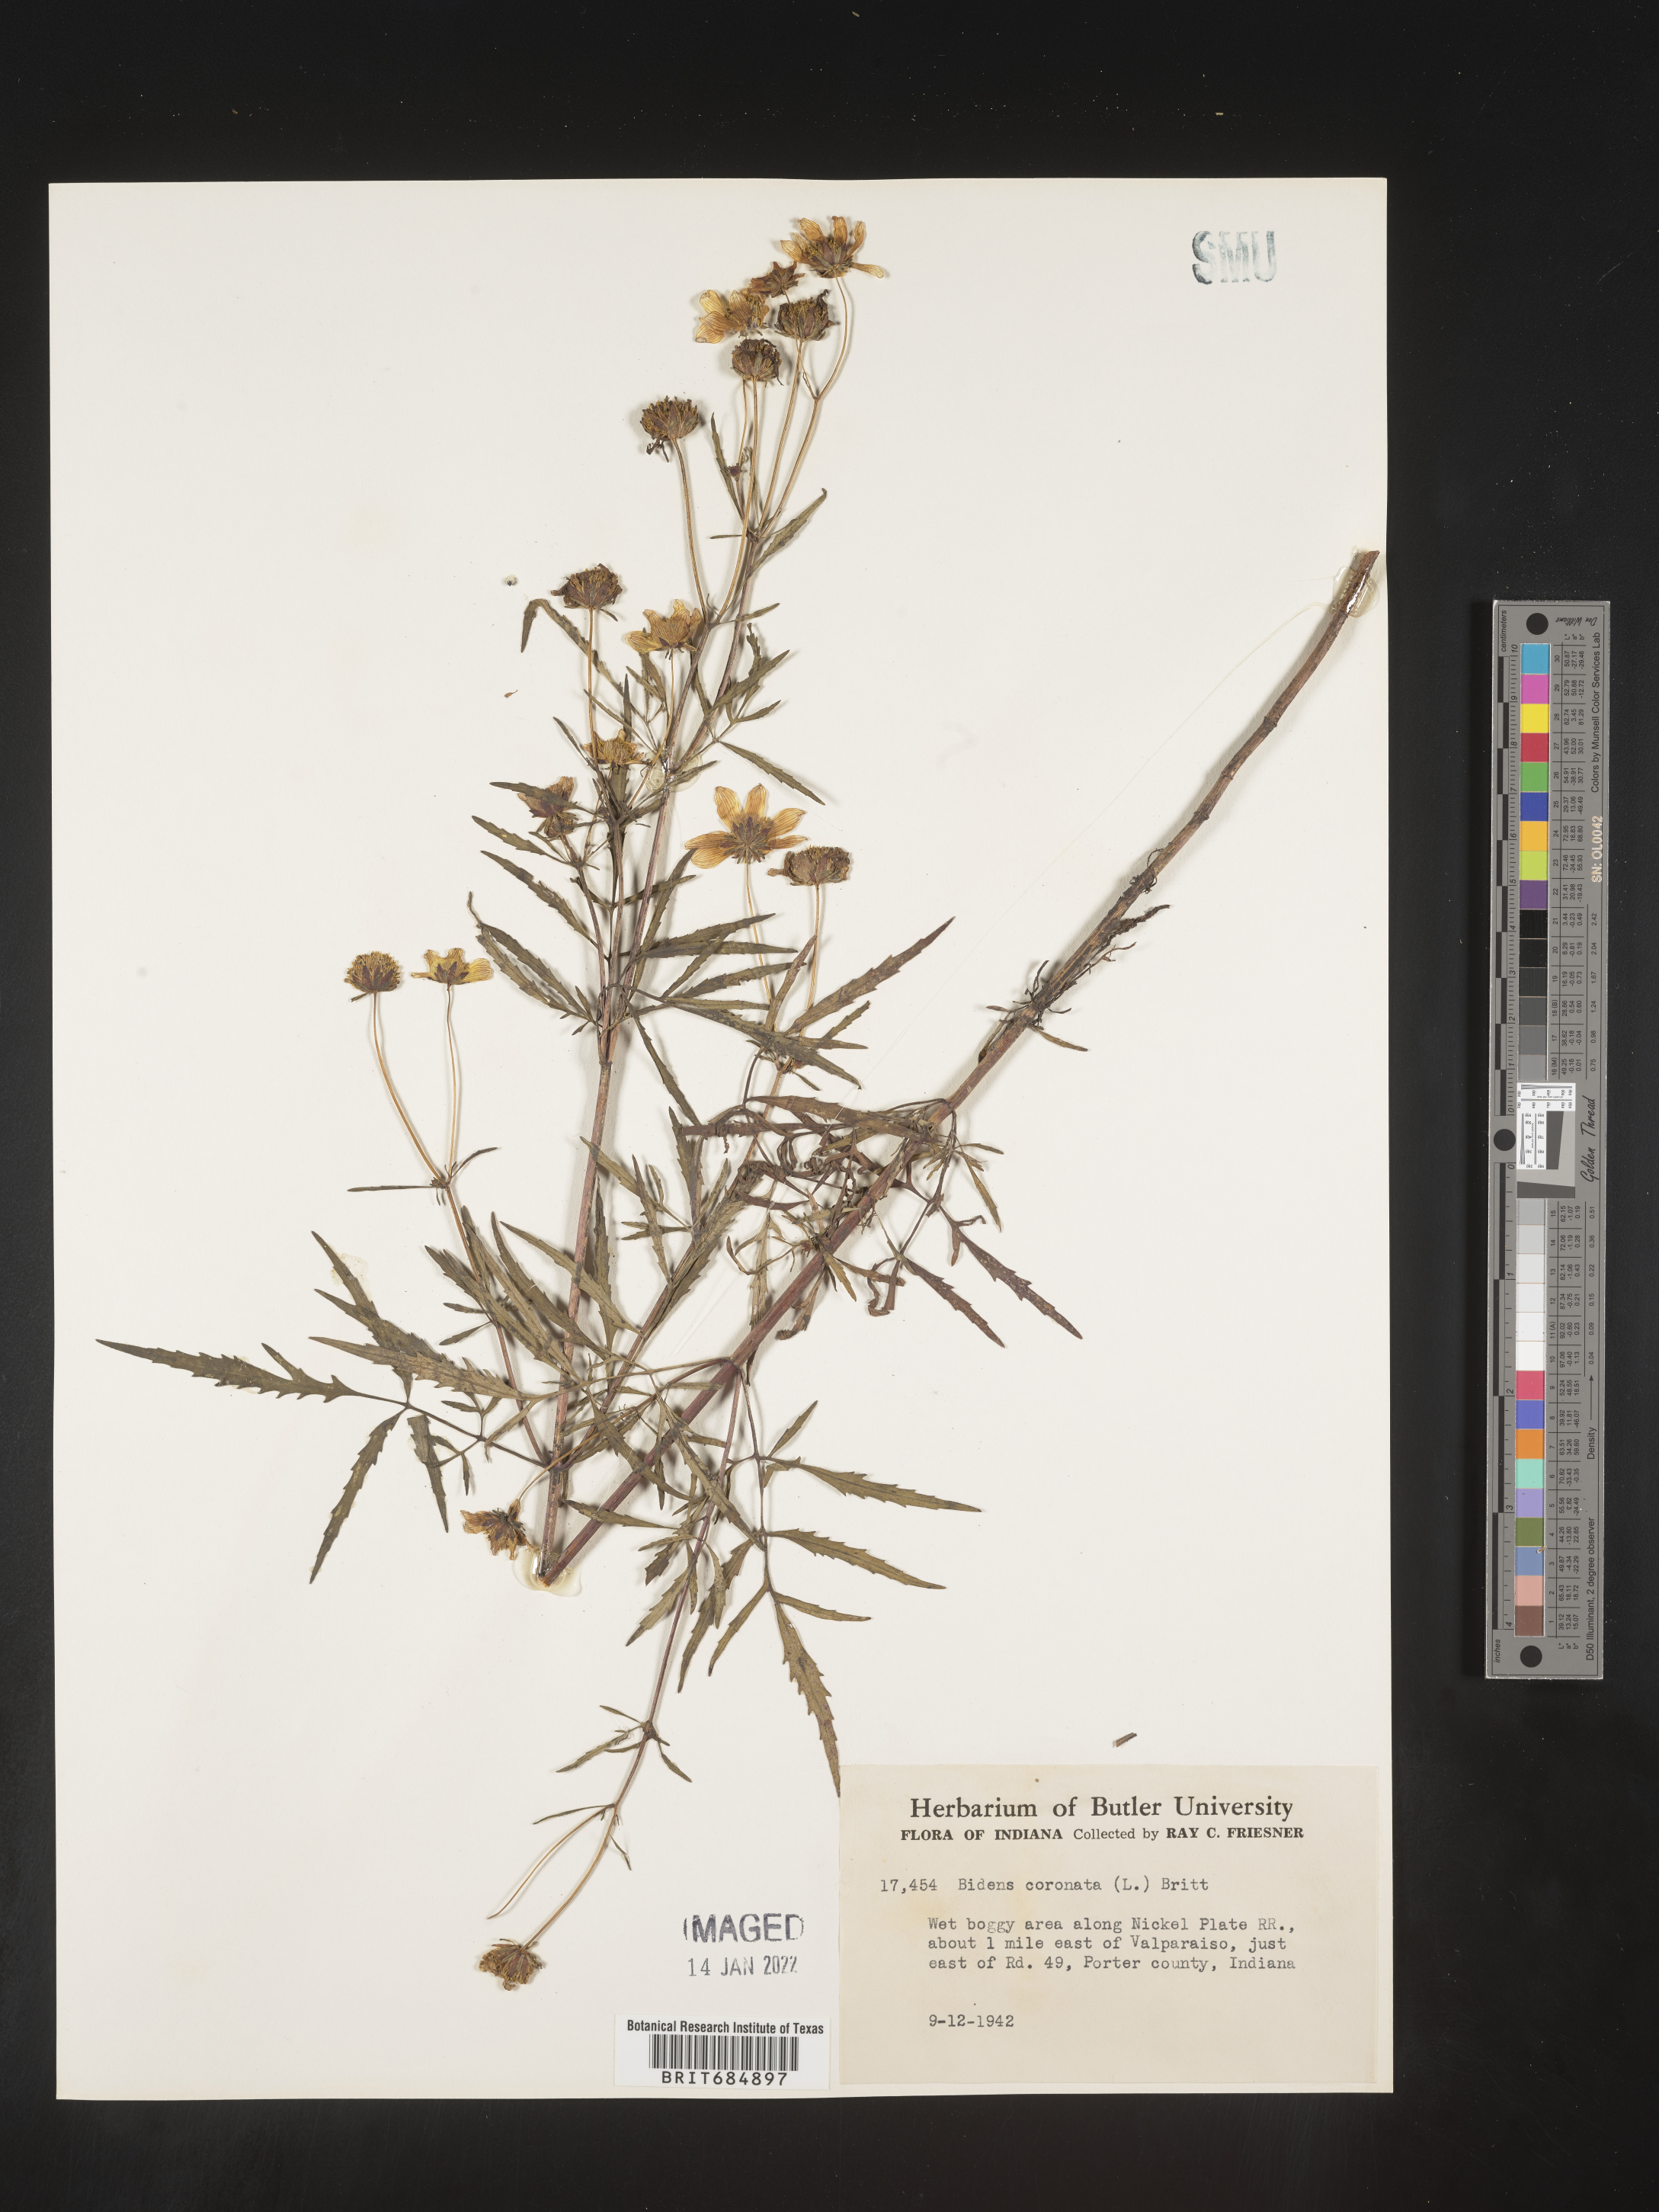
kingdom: Plantae
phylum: Tracheophyta
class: Magnoliopsida
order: Asterales
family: Asteraceae
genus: Bidens
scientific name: Bidens trichosperma
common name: Crowned beggarticks
